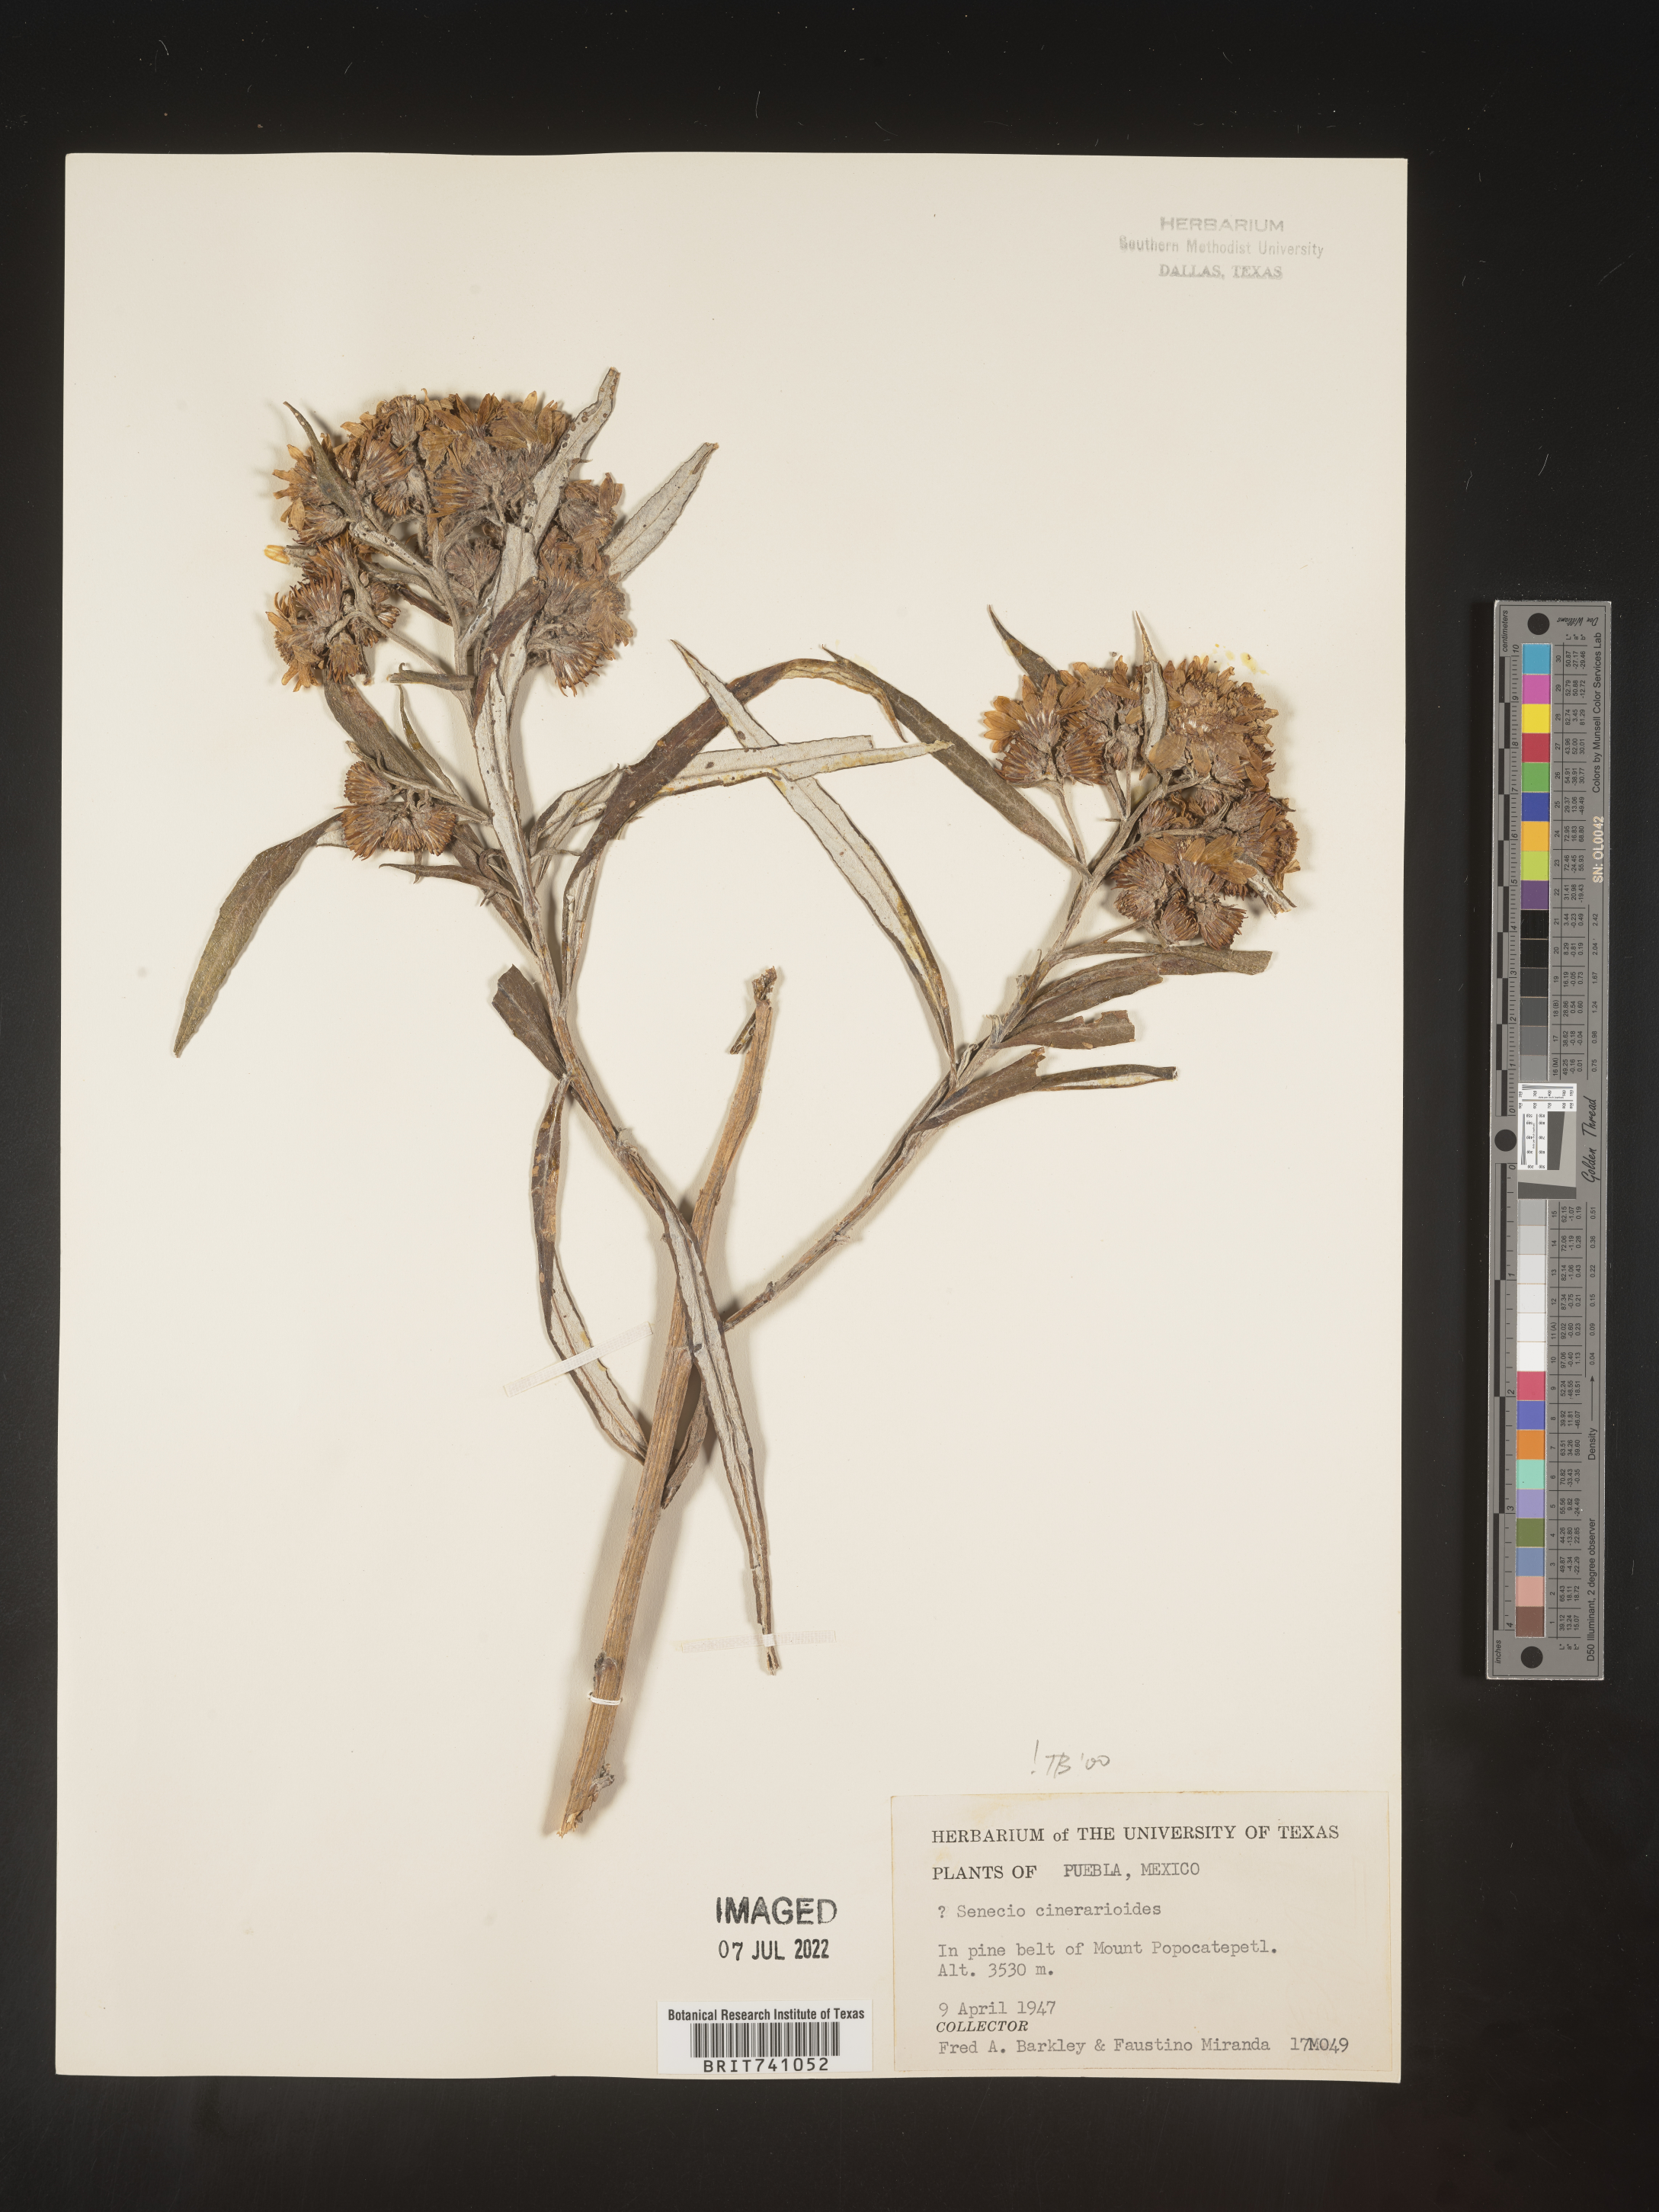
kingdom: Plantae
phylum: Tracheophyta
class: Magnoliopsida
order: Asterales
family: Asteraceae
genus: Senecio
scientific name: Senecio
